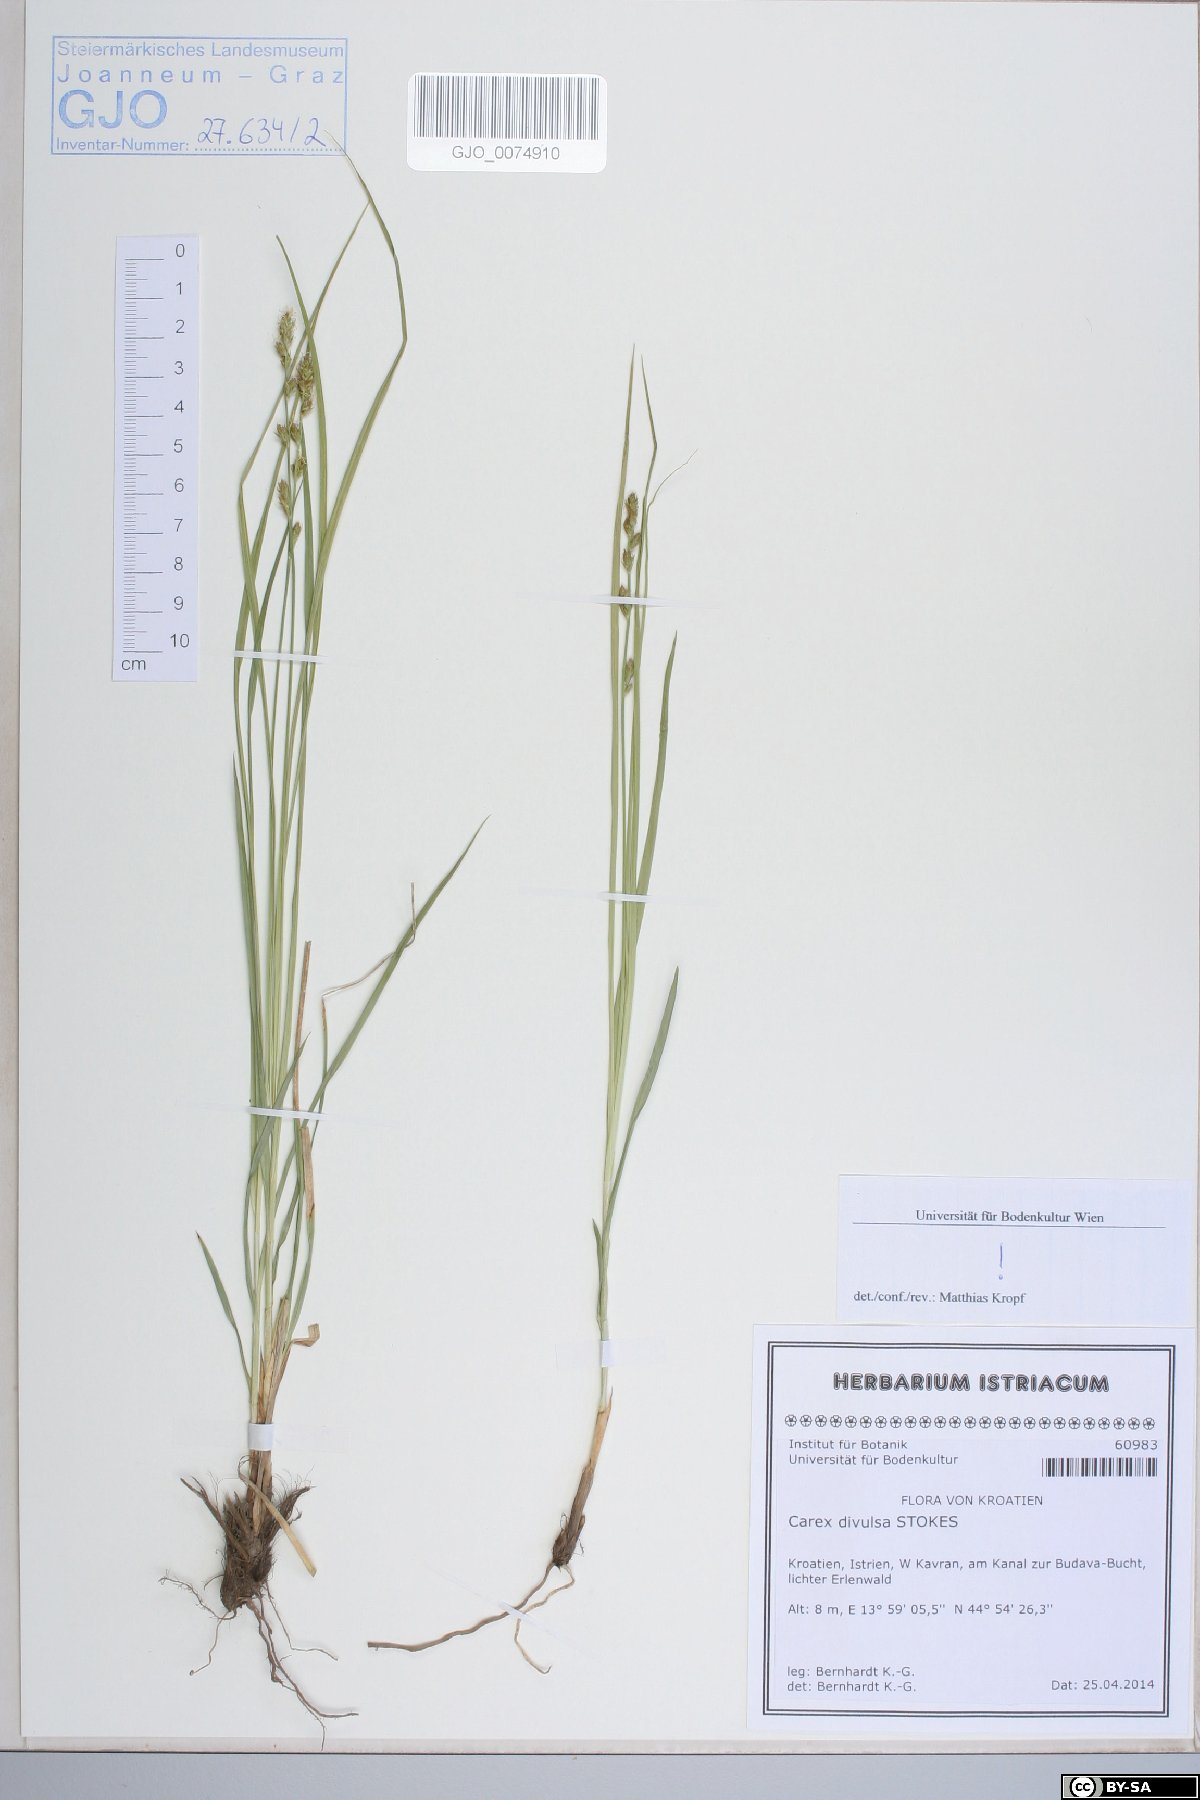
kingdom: Plantae
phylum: Tracheophyta
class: Liliopsida
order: Poales
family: Cyperaceae
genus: Carex
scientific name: Carex divulsa
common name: Grassland sedge
